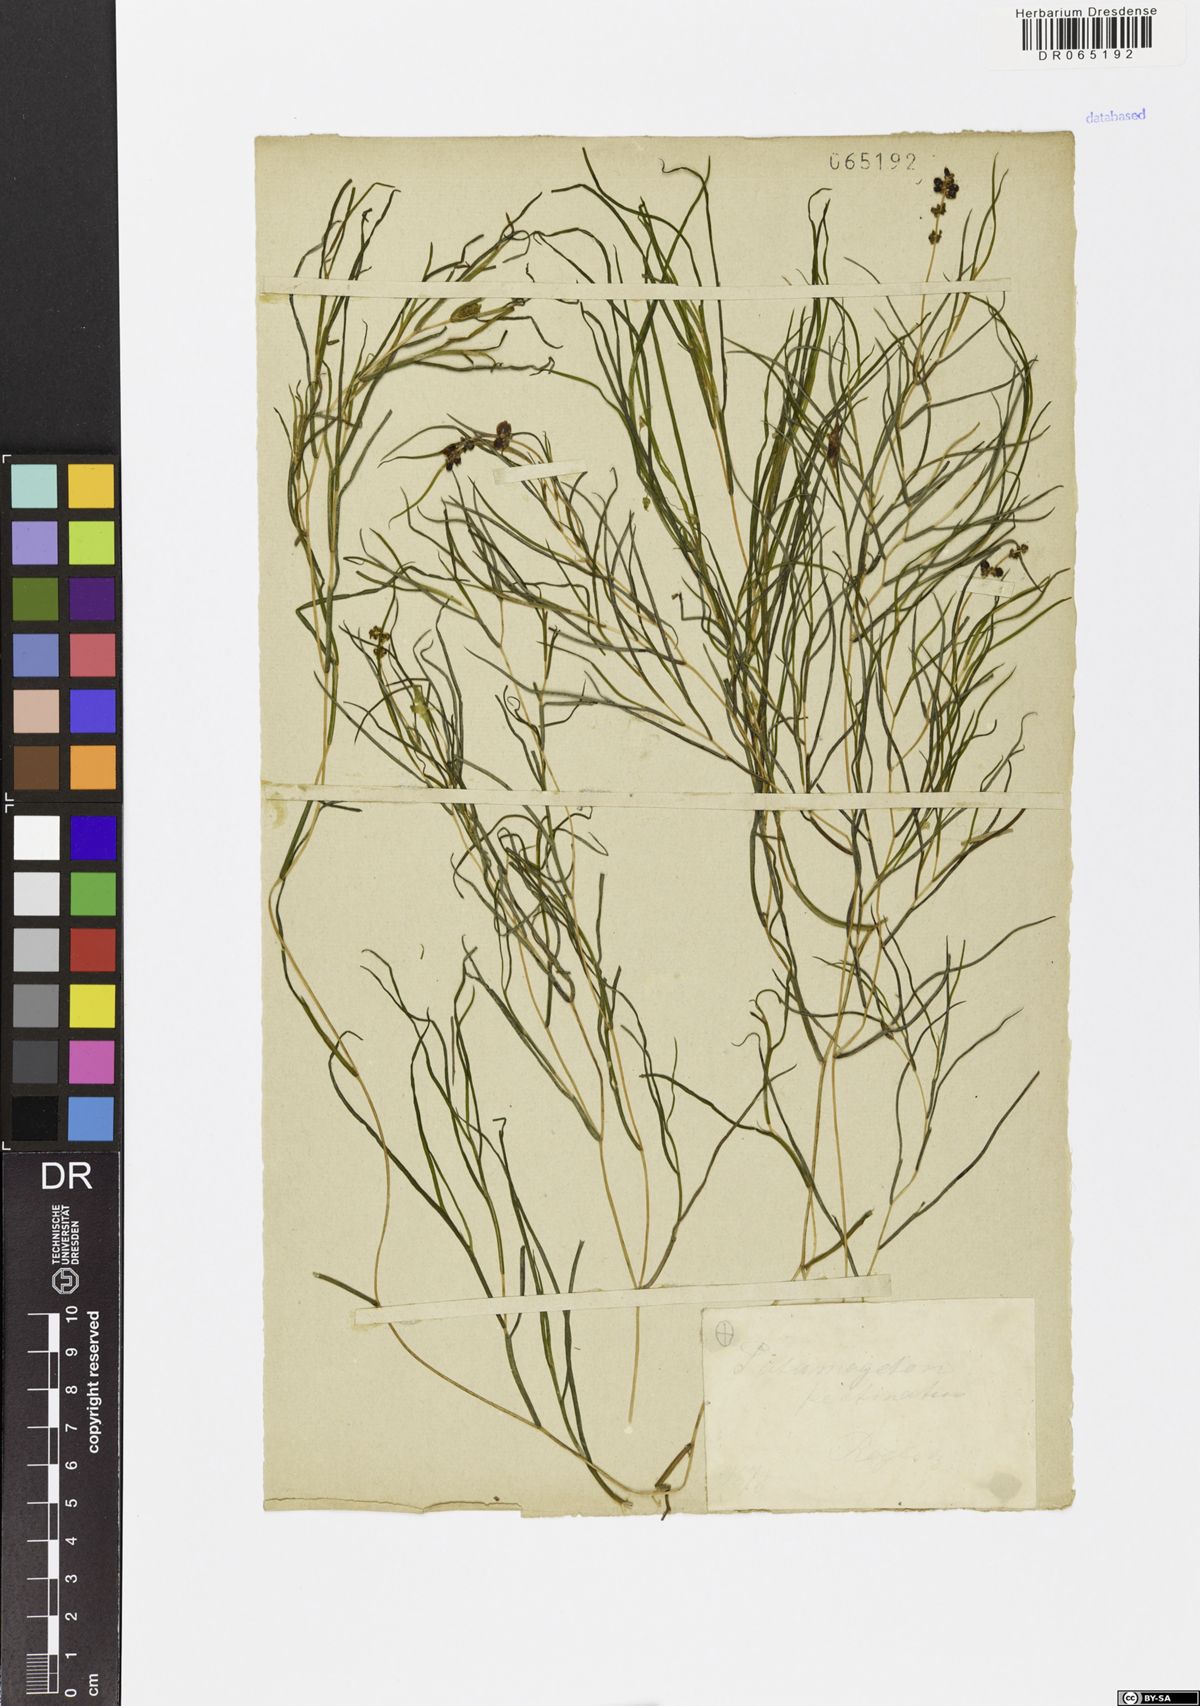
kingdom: Plantae
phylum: Tracheophyta
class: Liliopsida
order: Alismatales
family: Potamogetonaceae
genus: Stuckenia
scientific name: Stuckenia pectinata
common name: Sago pondweed
